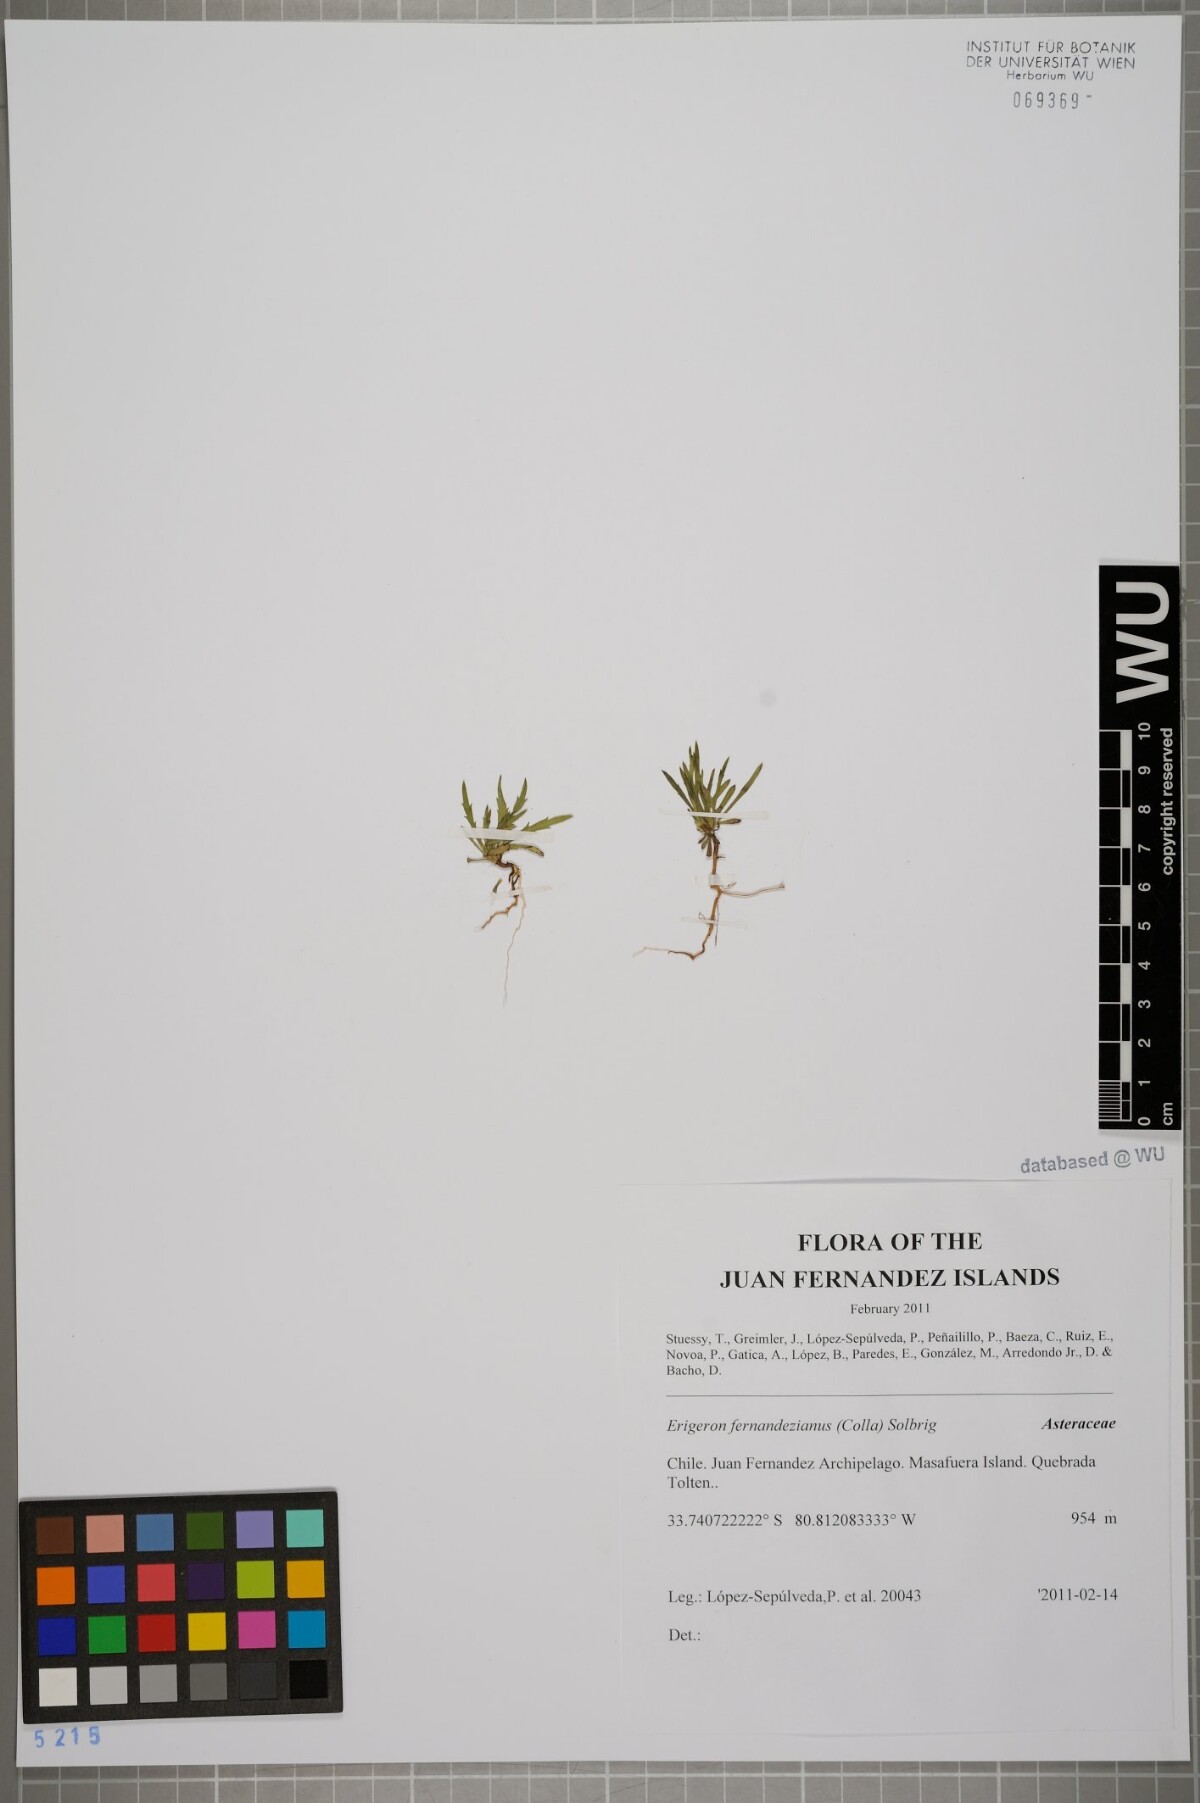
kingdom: Plantae
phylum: Tracheophyta
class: Magnoliopsida
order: Asterales
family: Asteraceae
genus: Erigeron
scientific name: Erigeron fernandezianus
